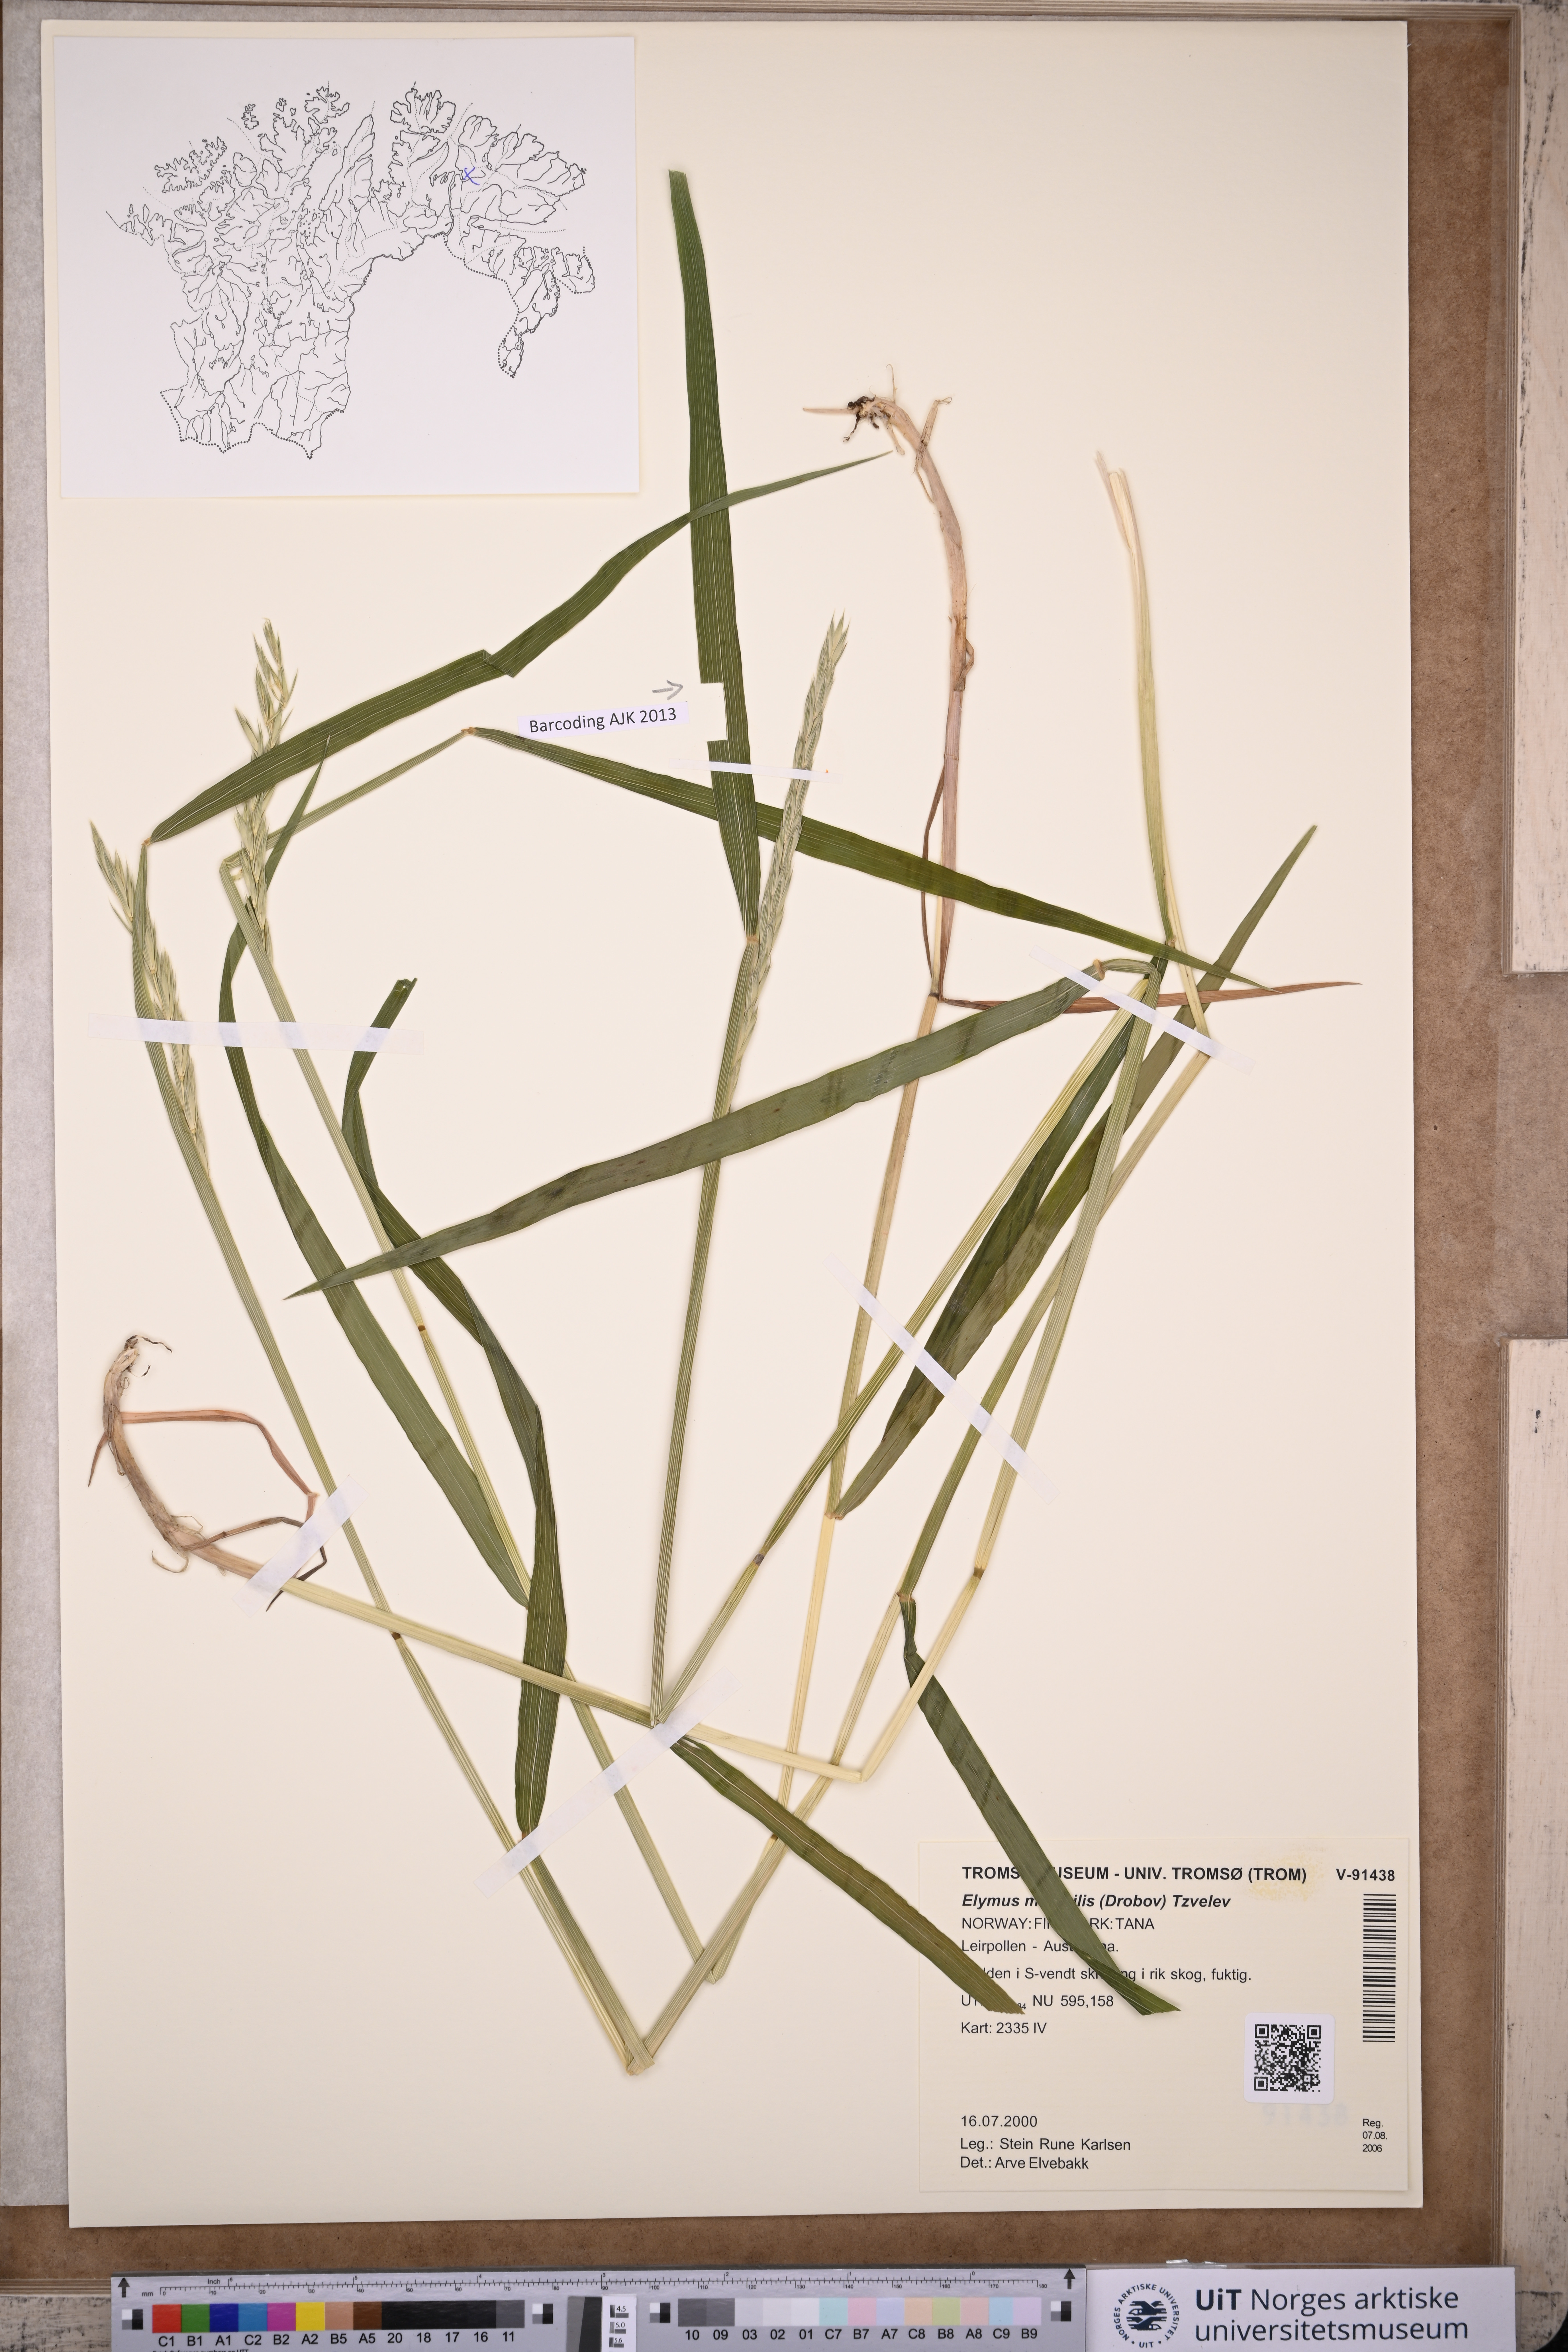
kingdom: Plantae
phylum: Tracheophyta
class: Liliopsida
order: Poales
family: Poaceae
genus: Elymus
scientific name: Elymus mutabilis
